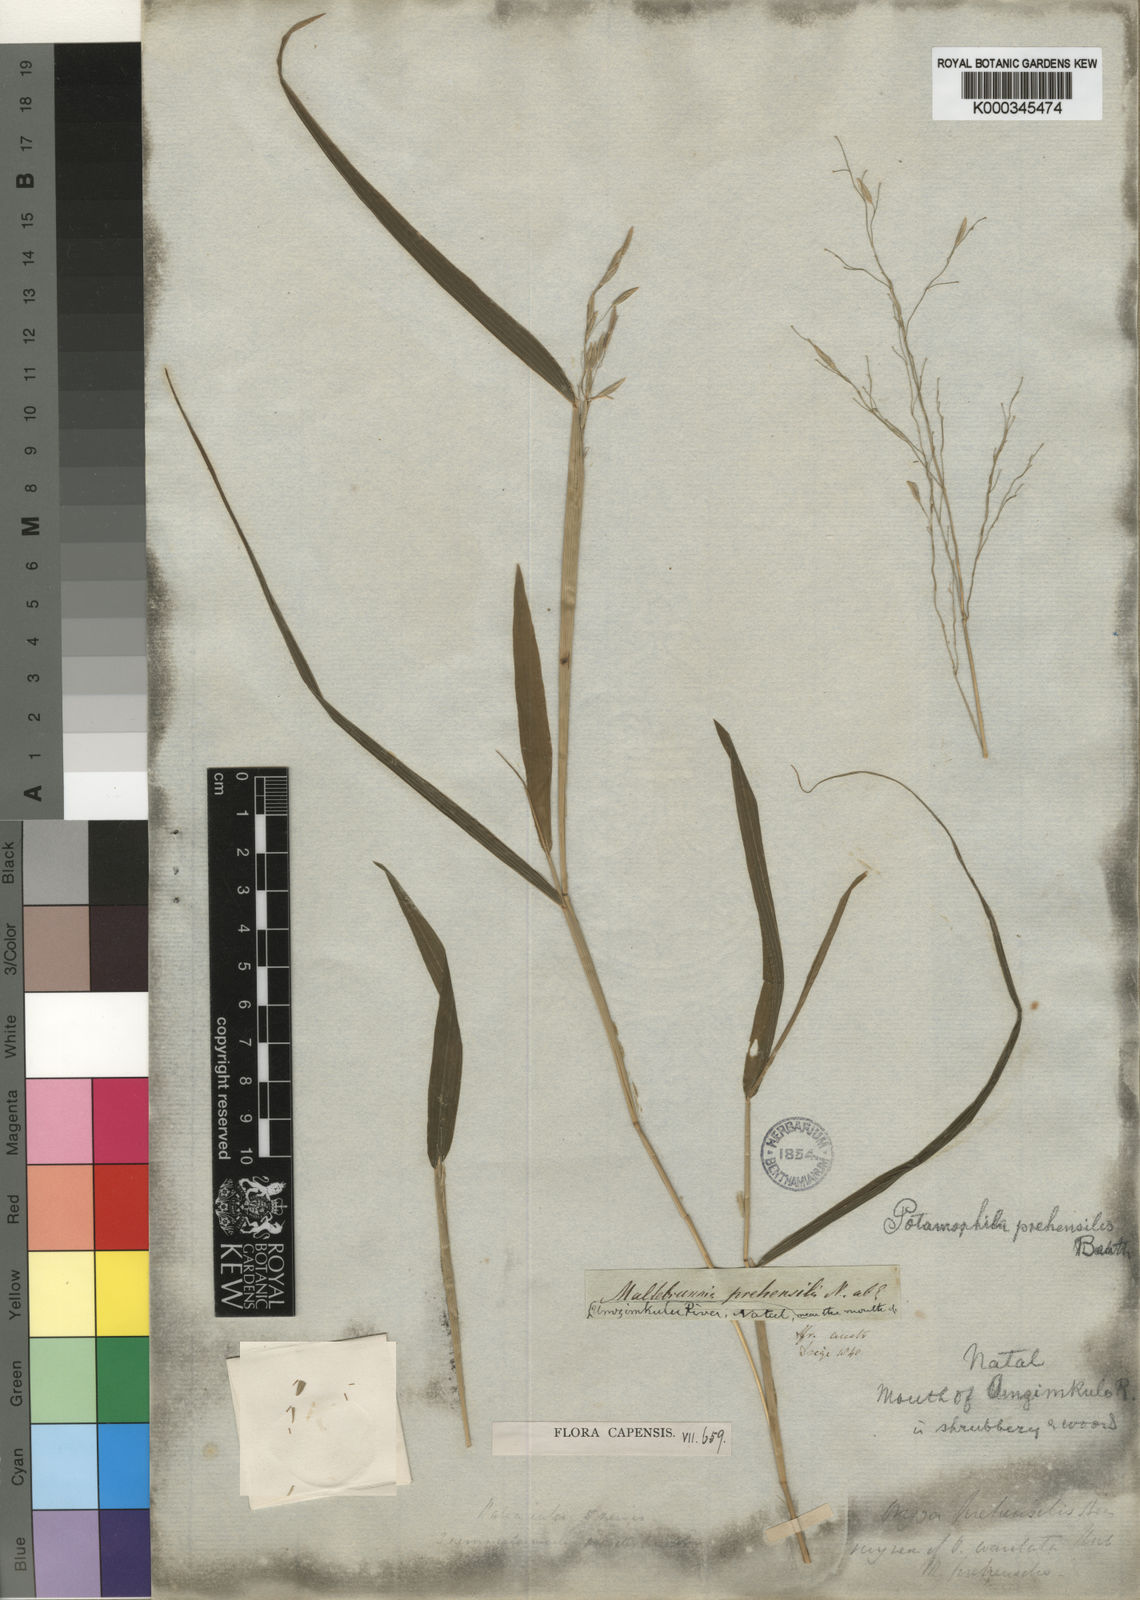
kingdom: Plantae
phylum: Tracheophyta
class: Liliopsida
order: Poales
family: Poaceae
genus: Prosphytochloa
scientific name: Prosphytochloa prehensilis
